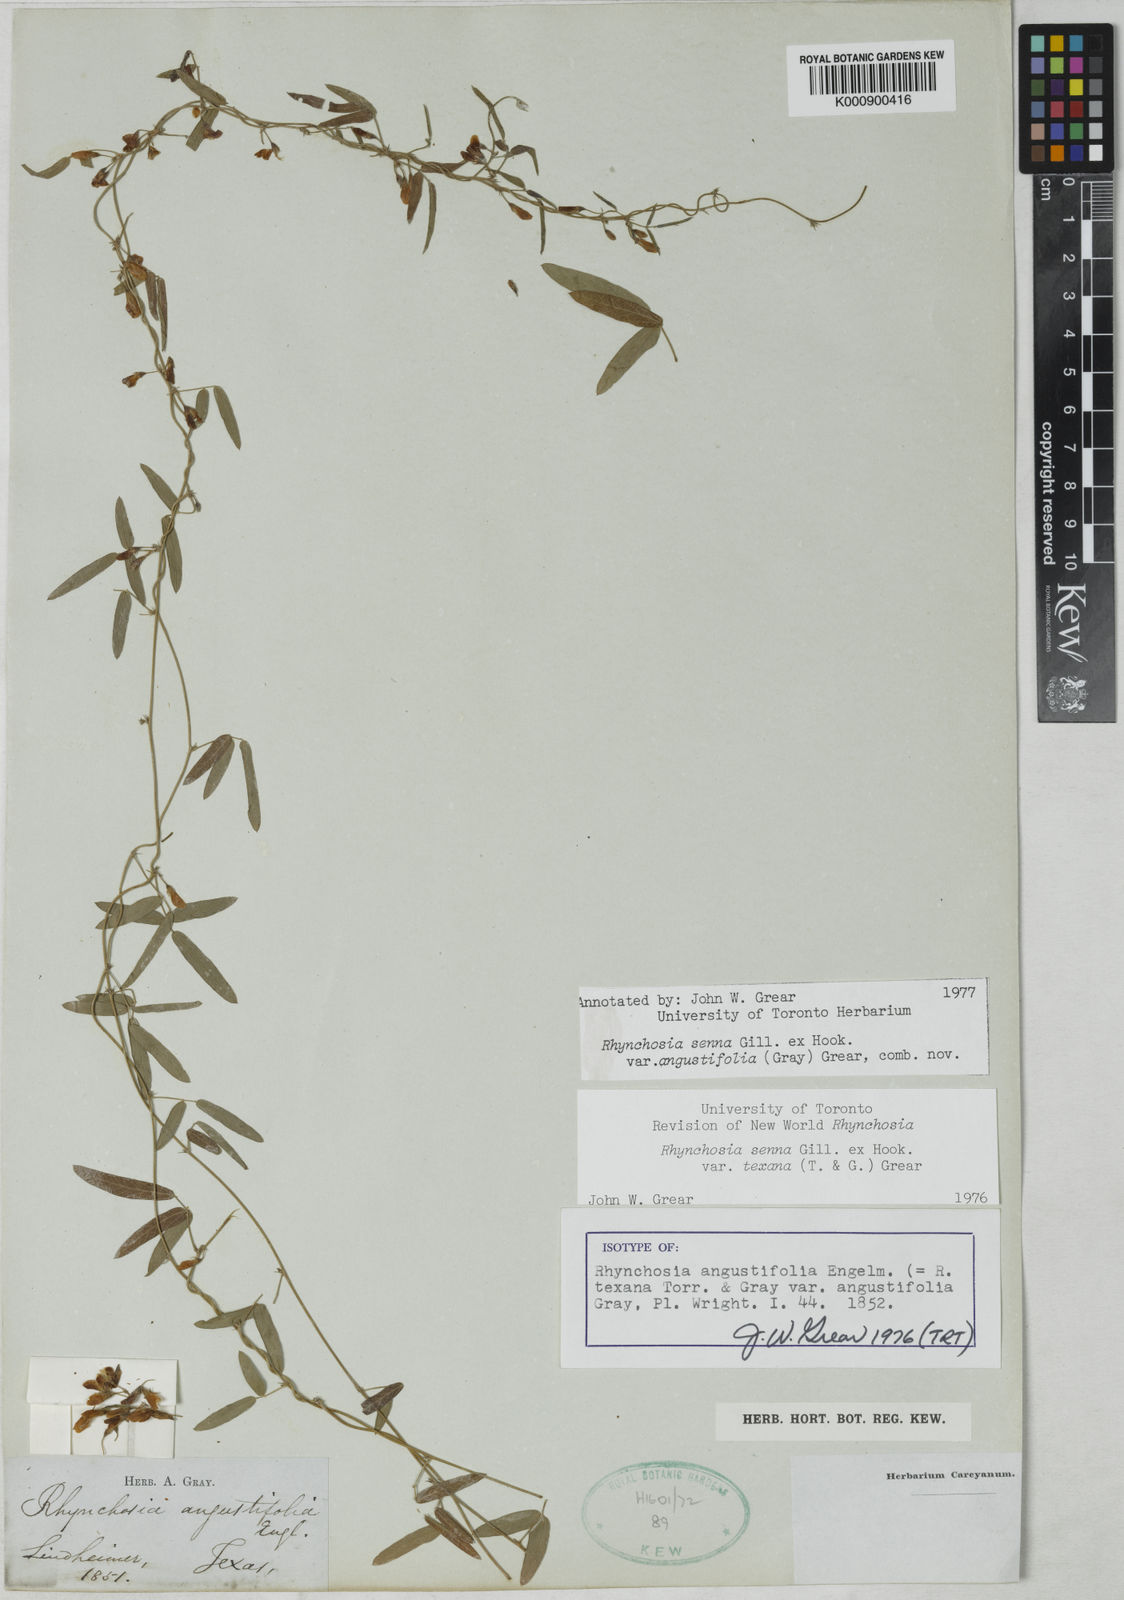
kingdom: Plantae
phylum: Tracheophyta
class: Magnoliopsida
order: Fabales
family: Fabaceae
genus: Rhynchosia
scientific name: Rhynchosia senna
